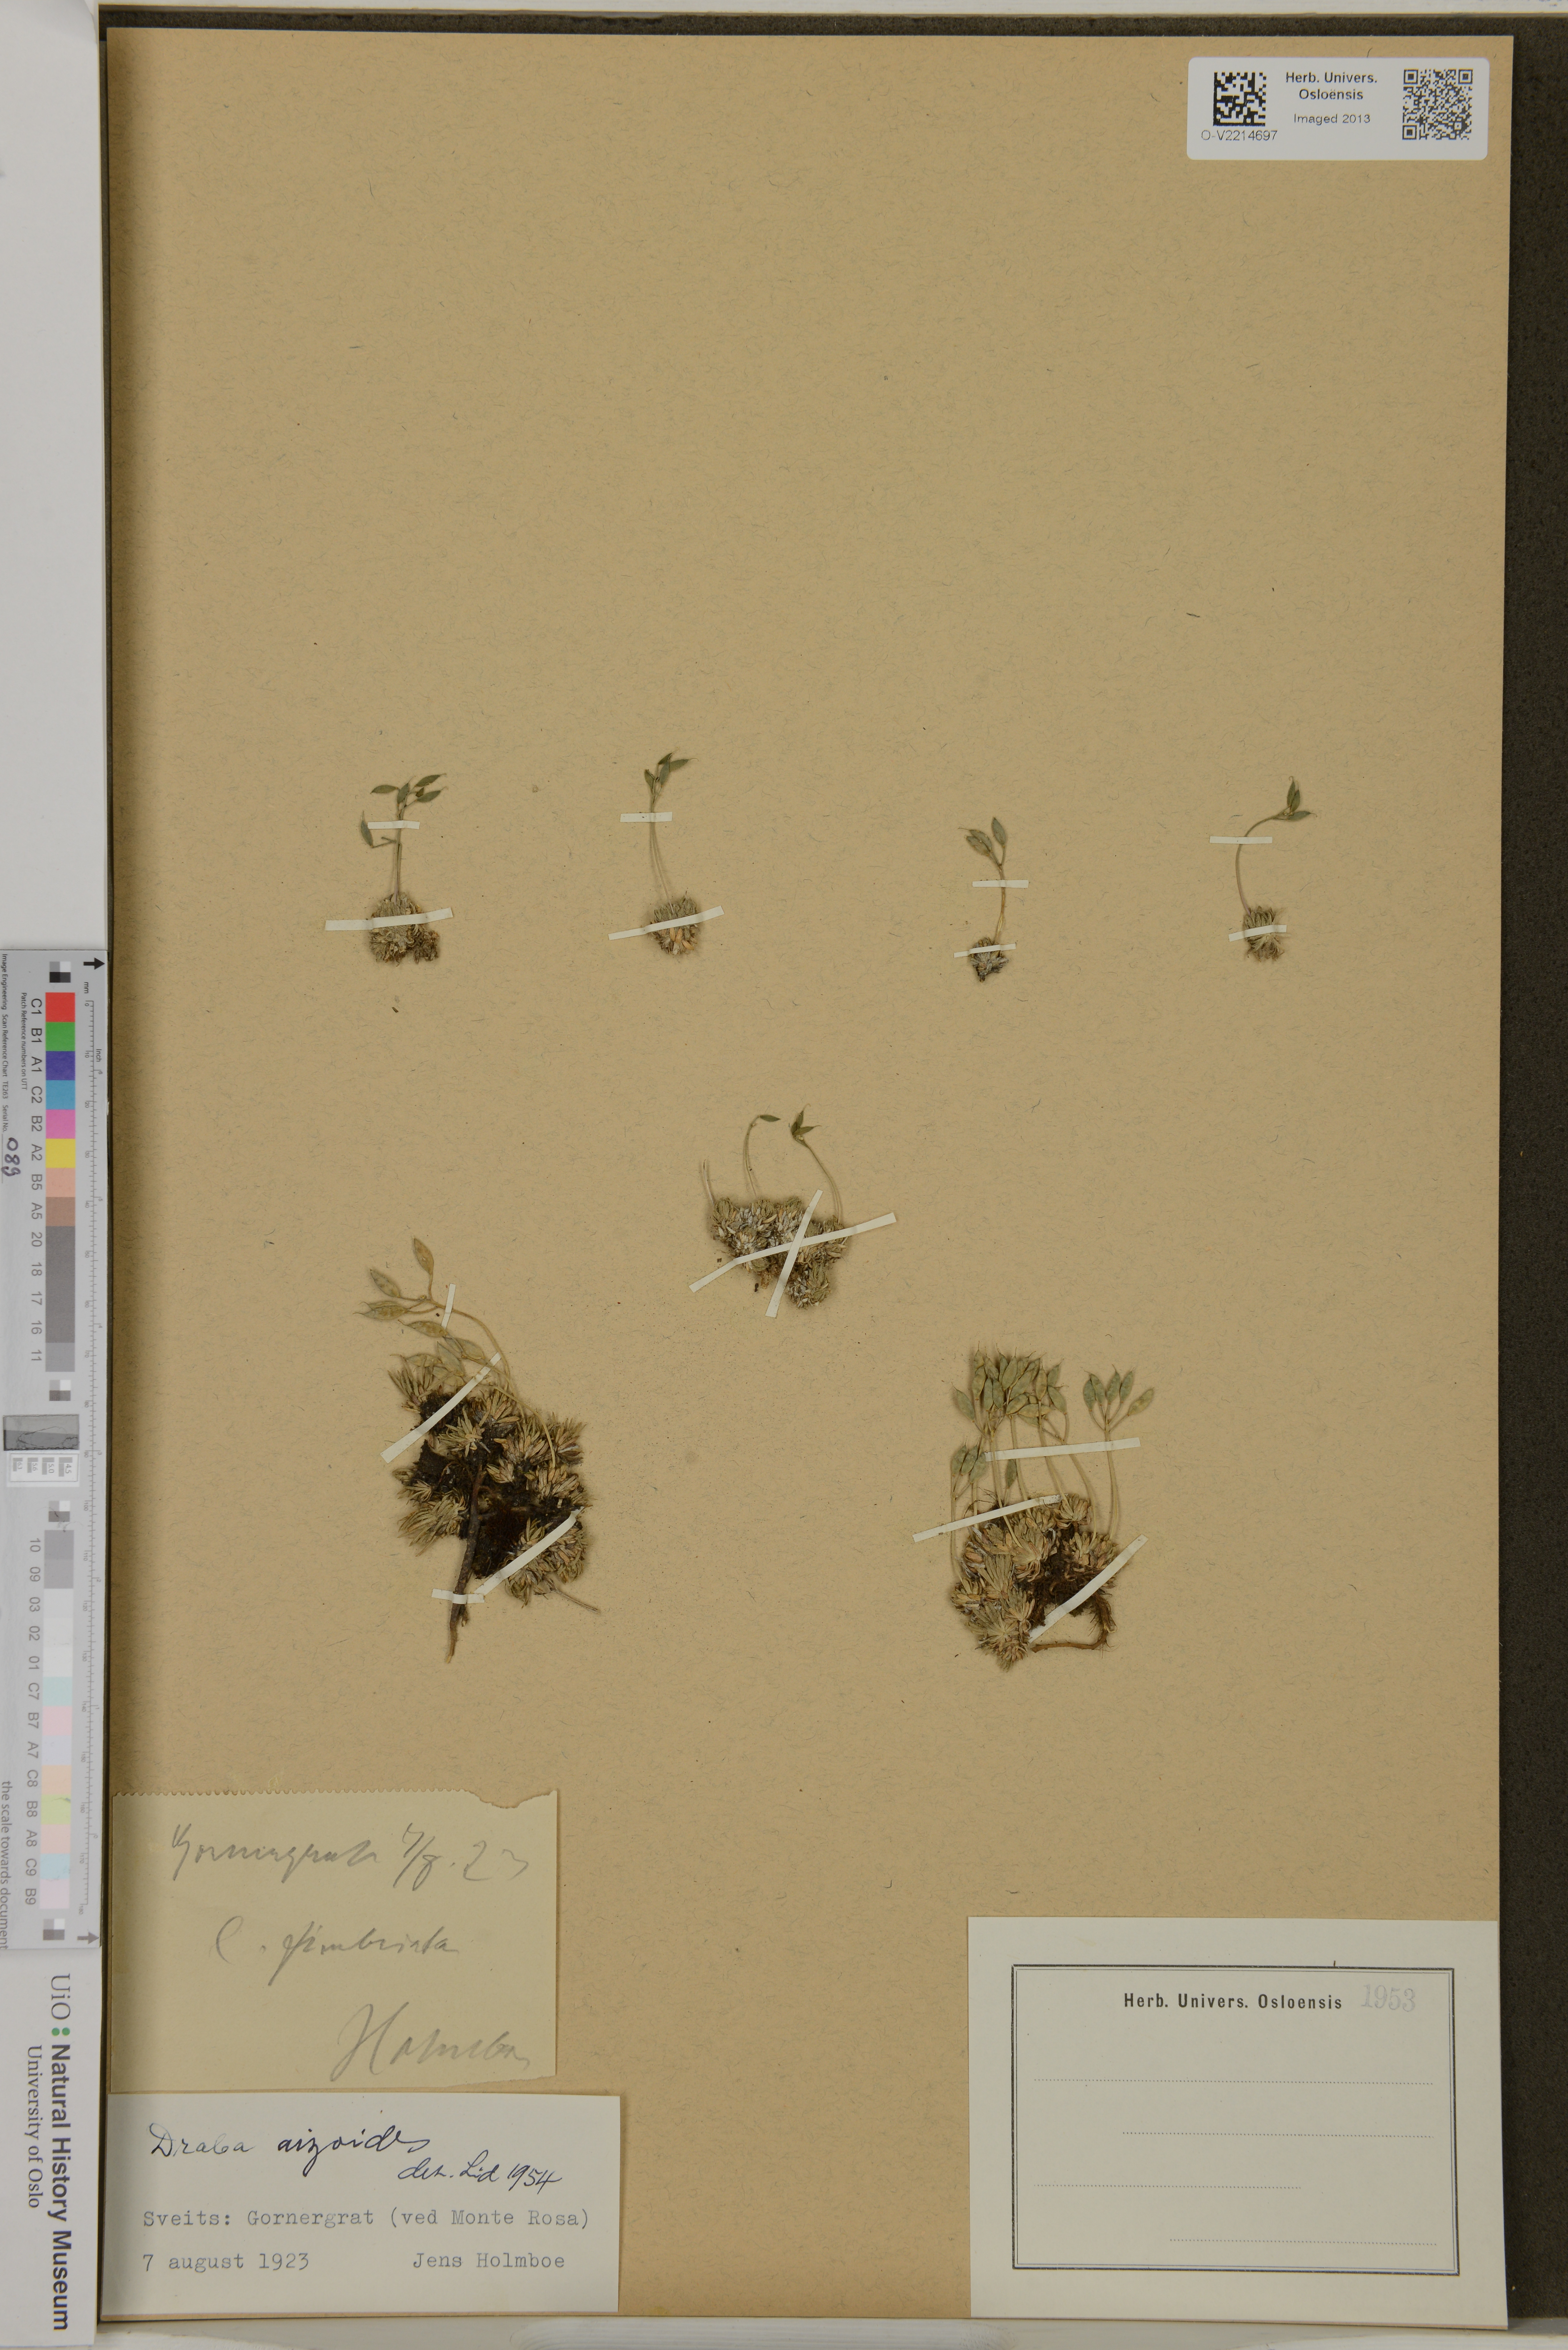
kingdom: Plantae
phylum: Tracheophyta
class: Magnoliopsida
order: Brassicales
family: Brassicaceae
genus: Draba
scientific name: Draba aizoides
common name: Yellow whitlowgrass
